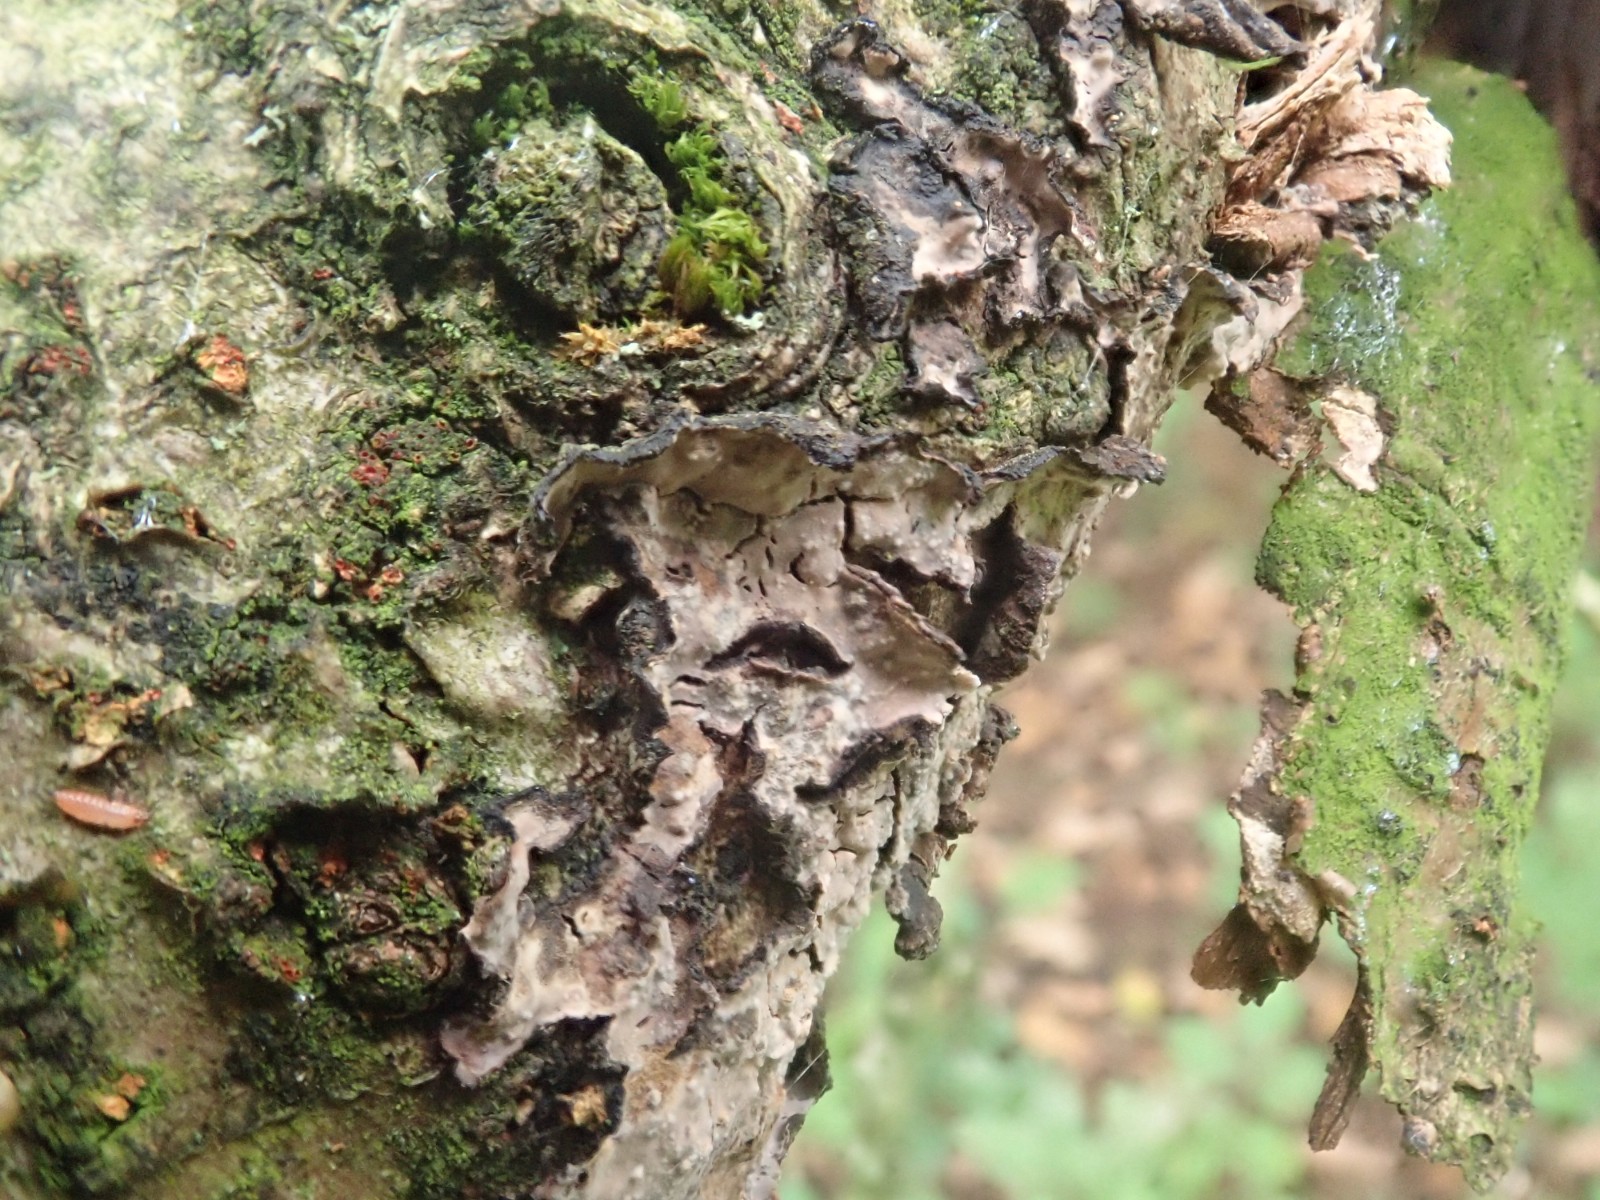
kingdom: Fungi
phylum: Basidiomycota
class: Agaricomycetes
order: Russulales
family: Peniophoraceae
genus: Peniophora
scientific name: Peniophora quercina
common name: ege-voksskind
